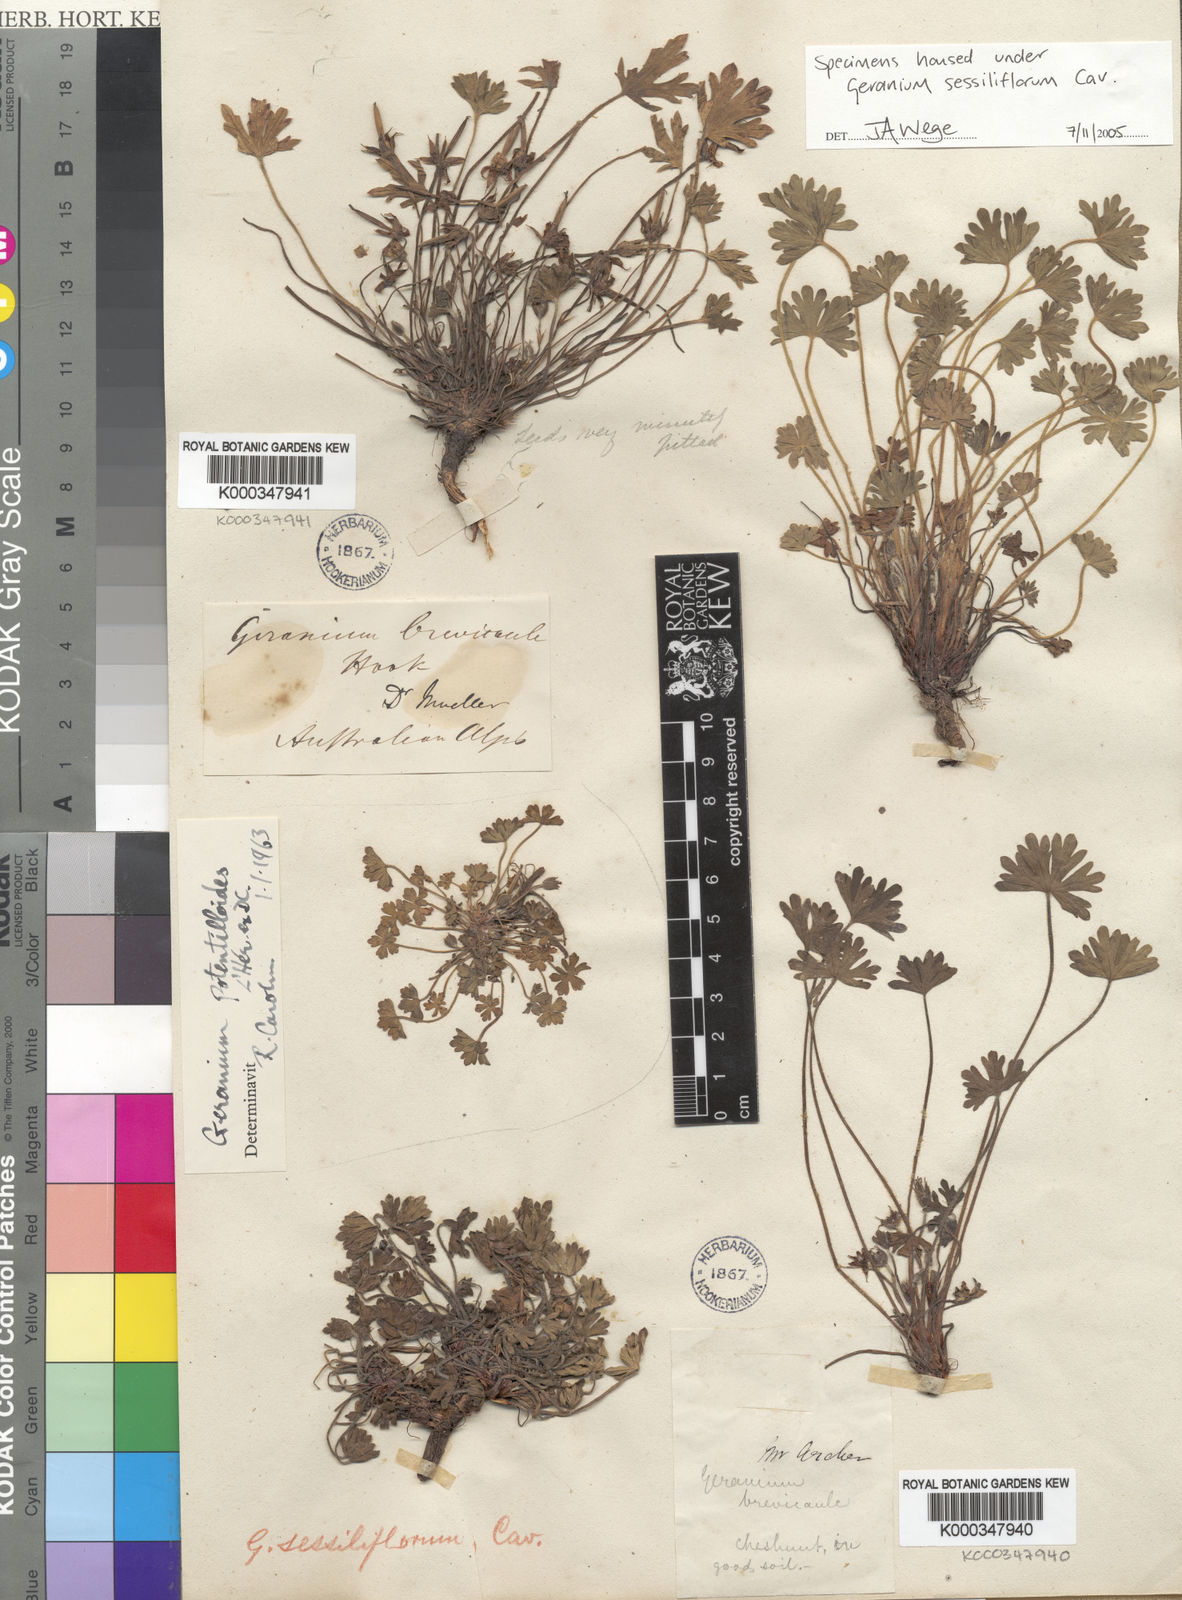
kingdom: Plantae
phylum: Tracheophyta
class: Magnoliopsida
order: Geraniales
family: Geraniaceae
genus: Geranium
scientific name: Geranium sessiliflorum
